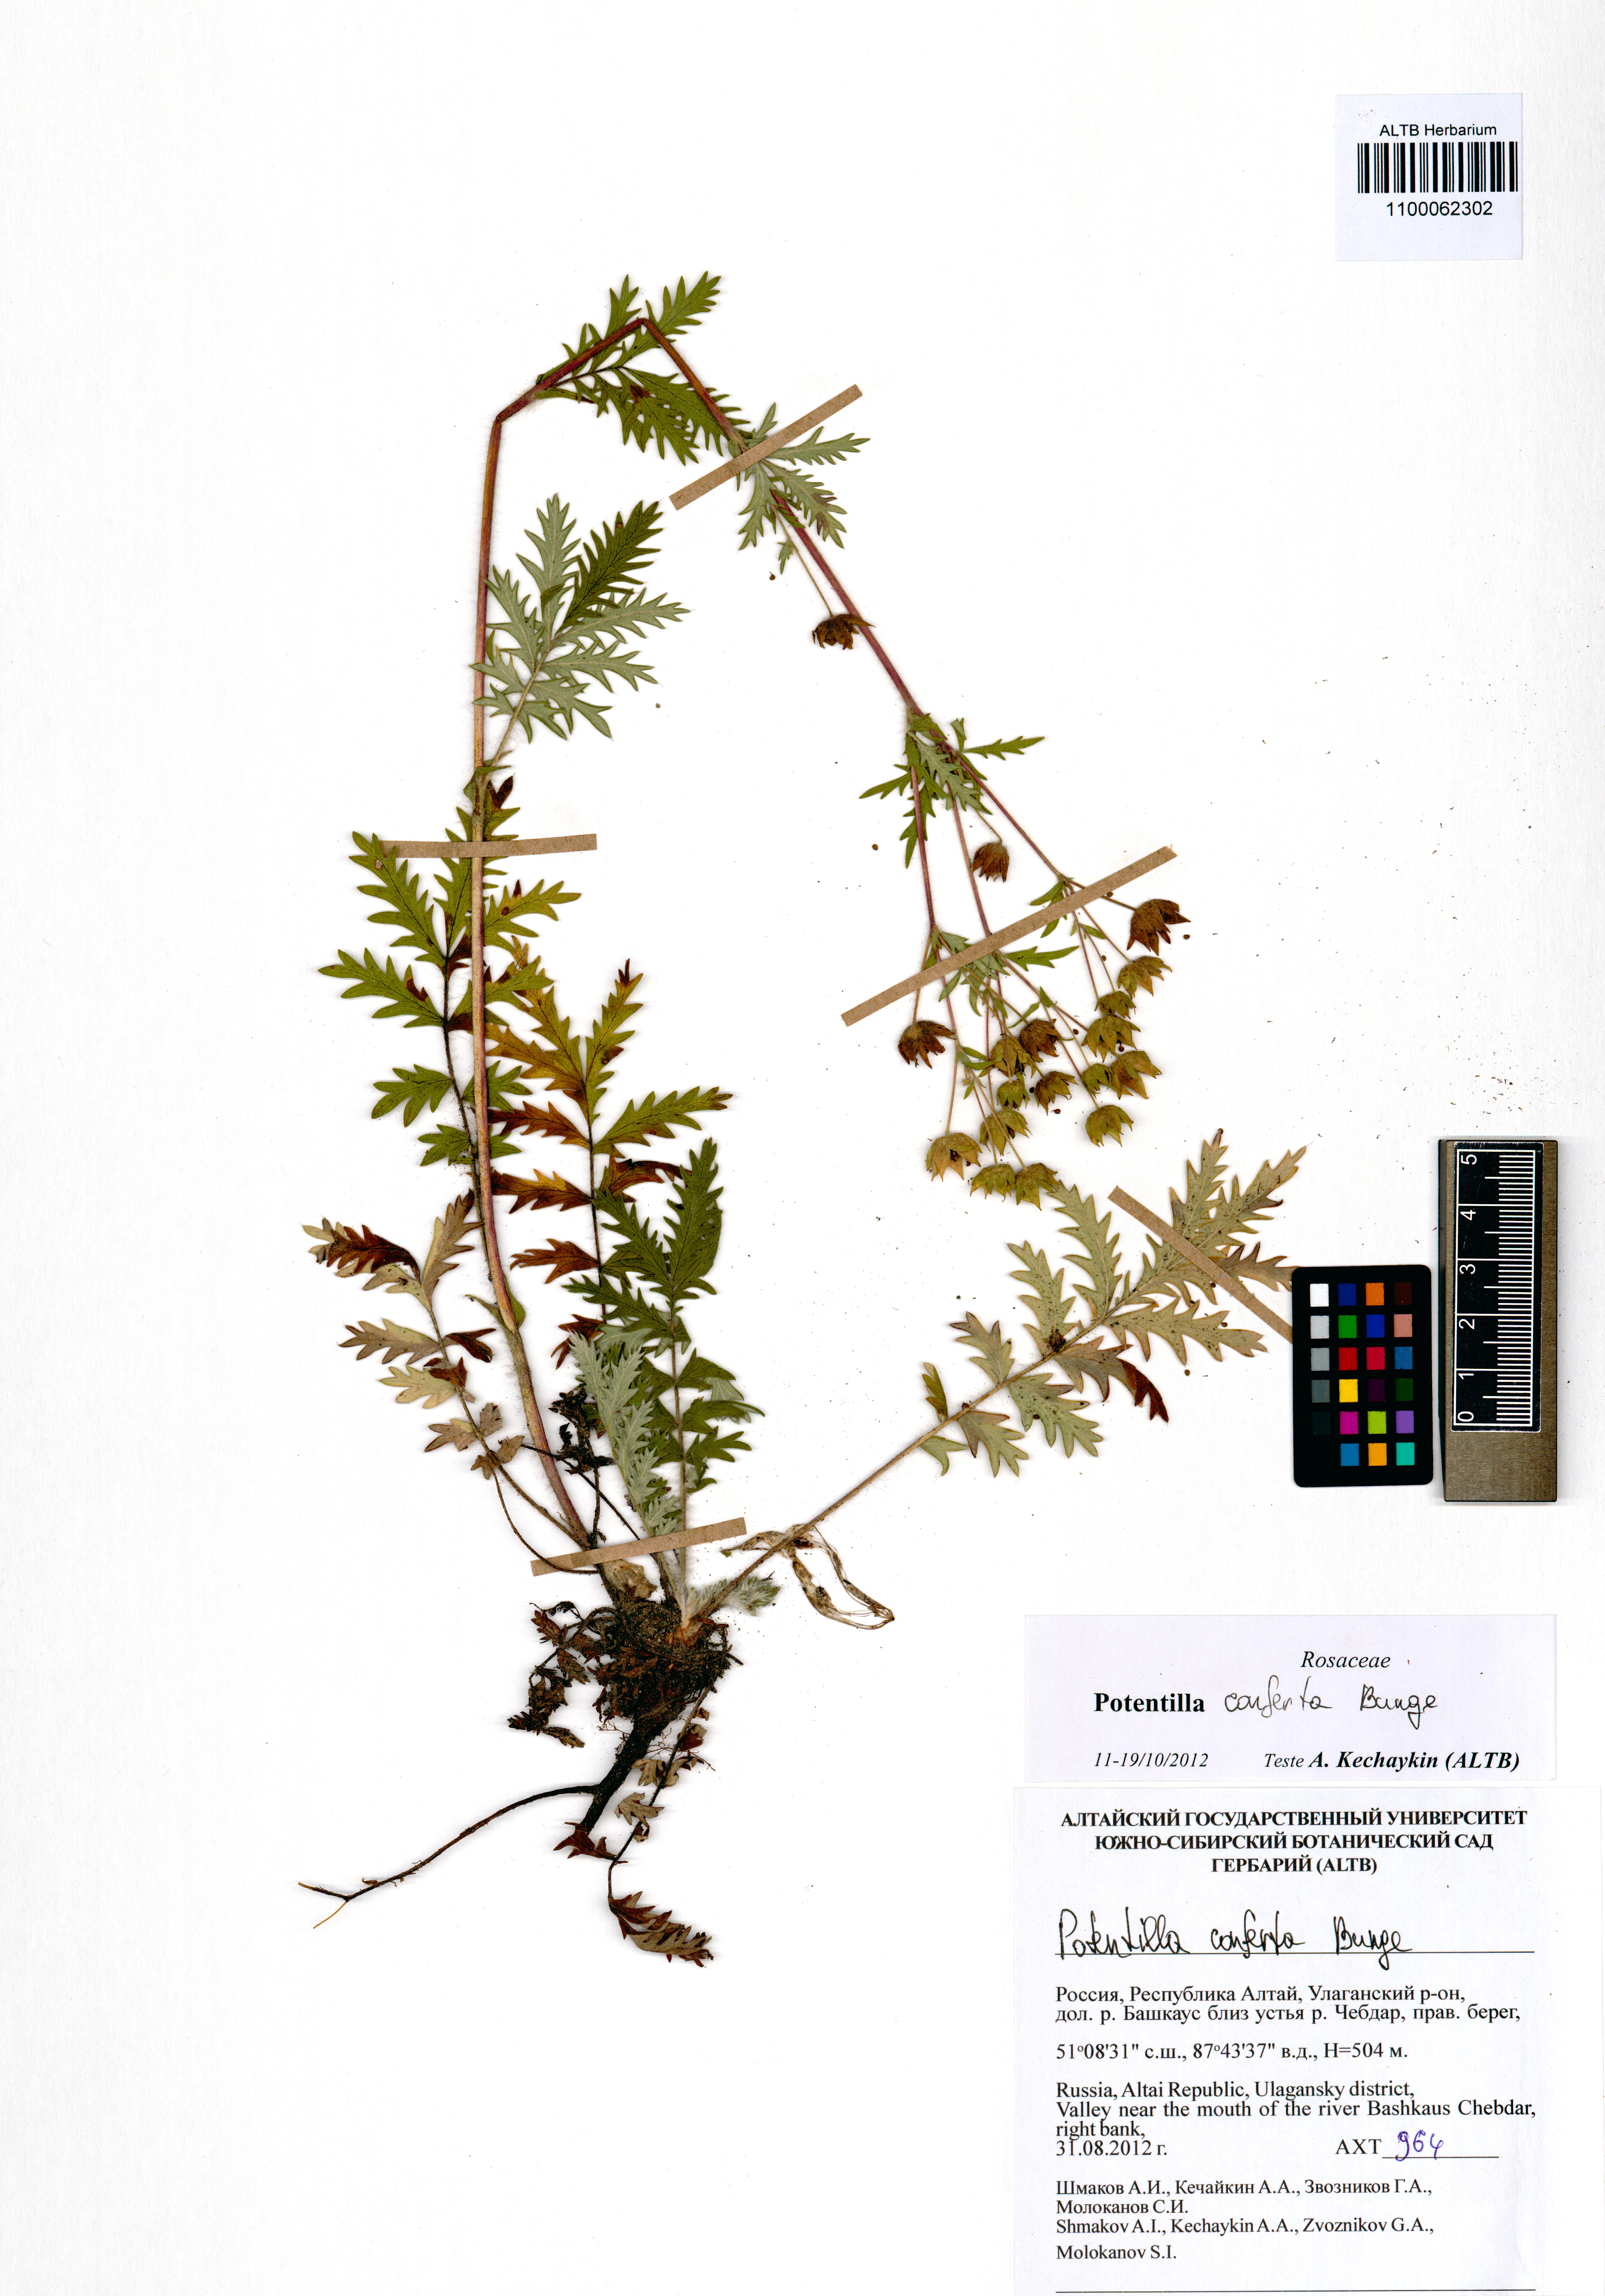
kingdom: Plantae
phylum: Tracheophyta
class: Magnoliopsida
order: Rosales
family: Rosaceae
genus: Potentilla
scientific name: Potentilla conferta
